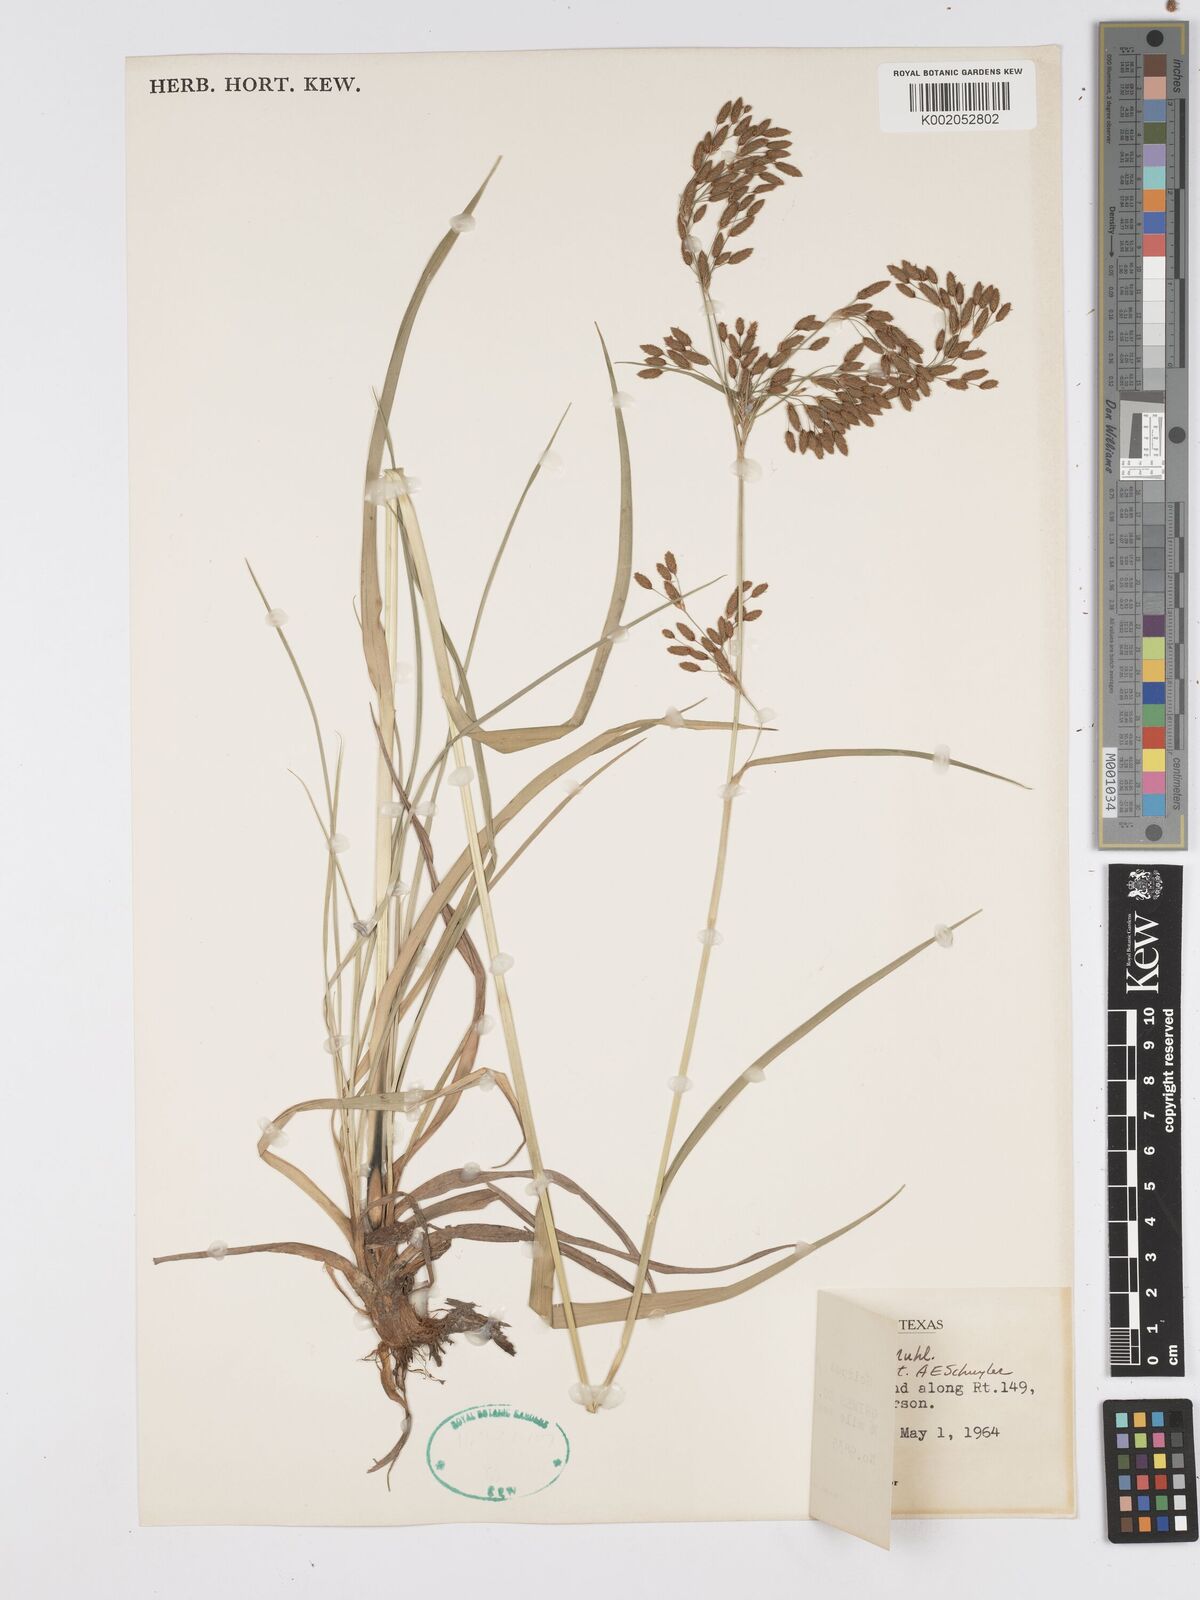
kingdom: Plantae
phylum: Tracheophyta
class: Liliopsida
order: Poales
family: Cyperaceae
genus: Scirpus
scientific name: Scirpus lineatus
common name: Drooping bulrush
